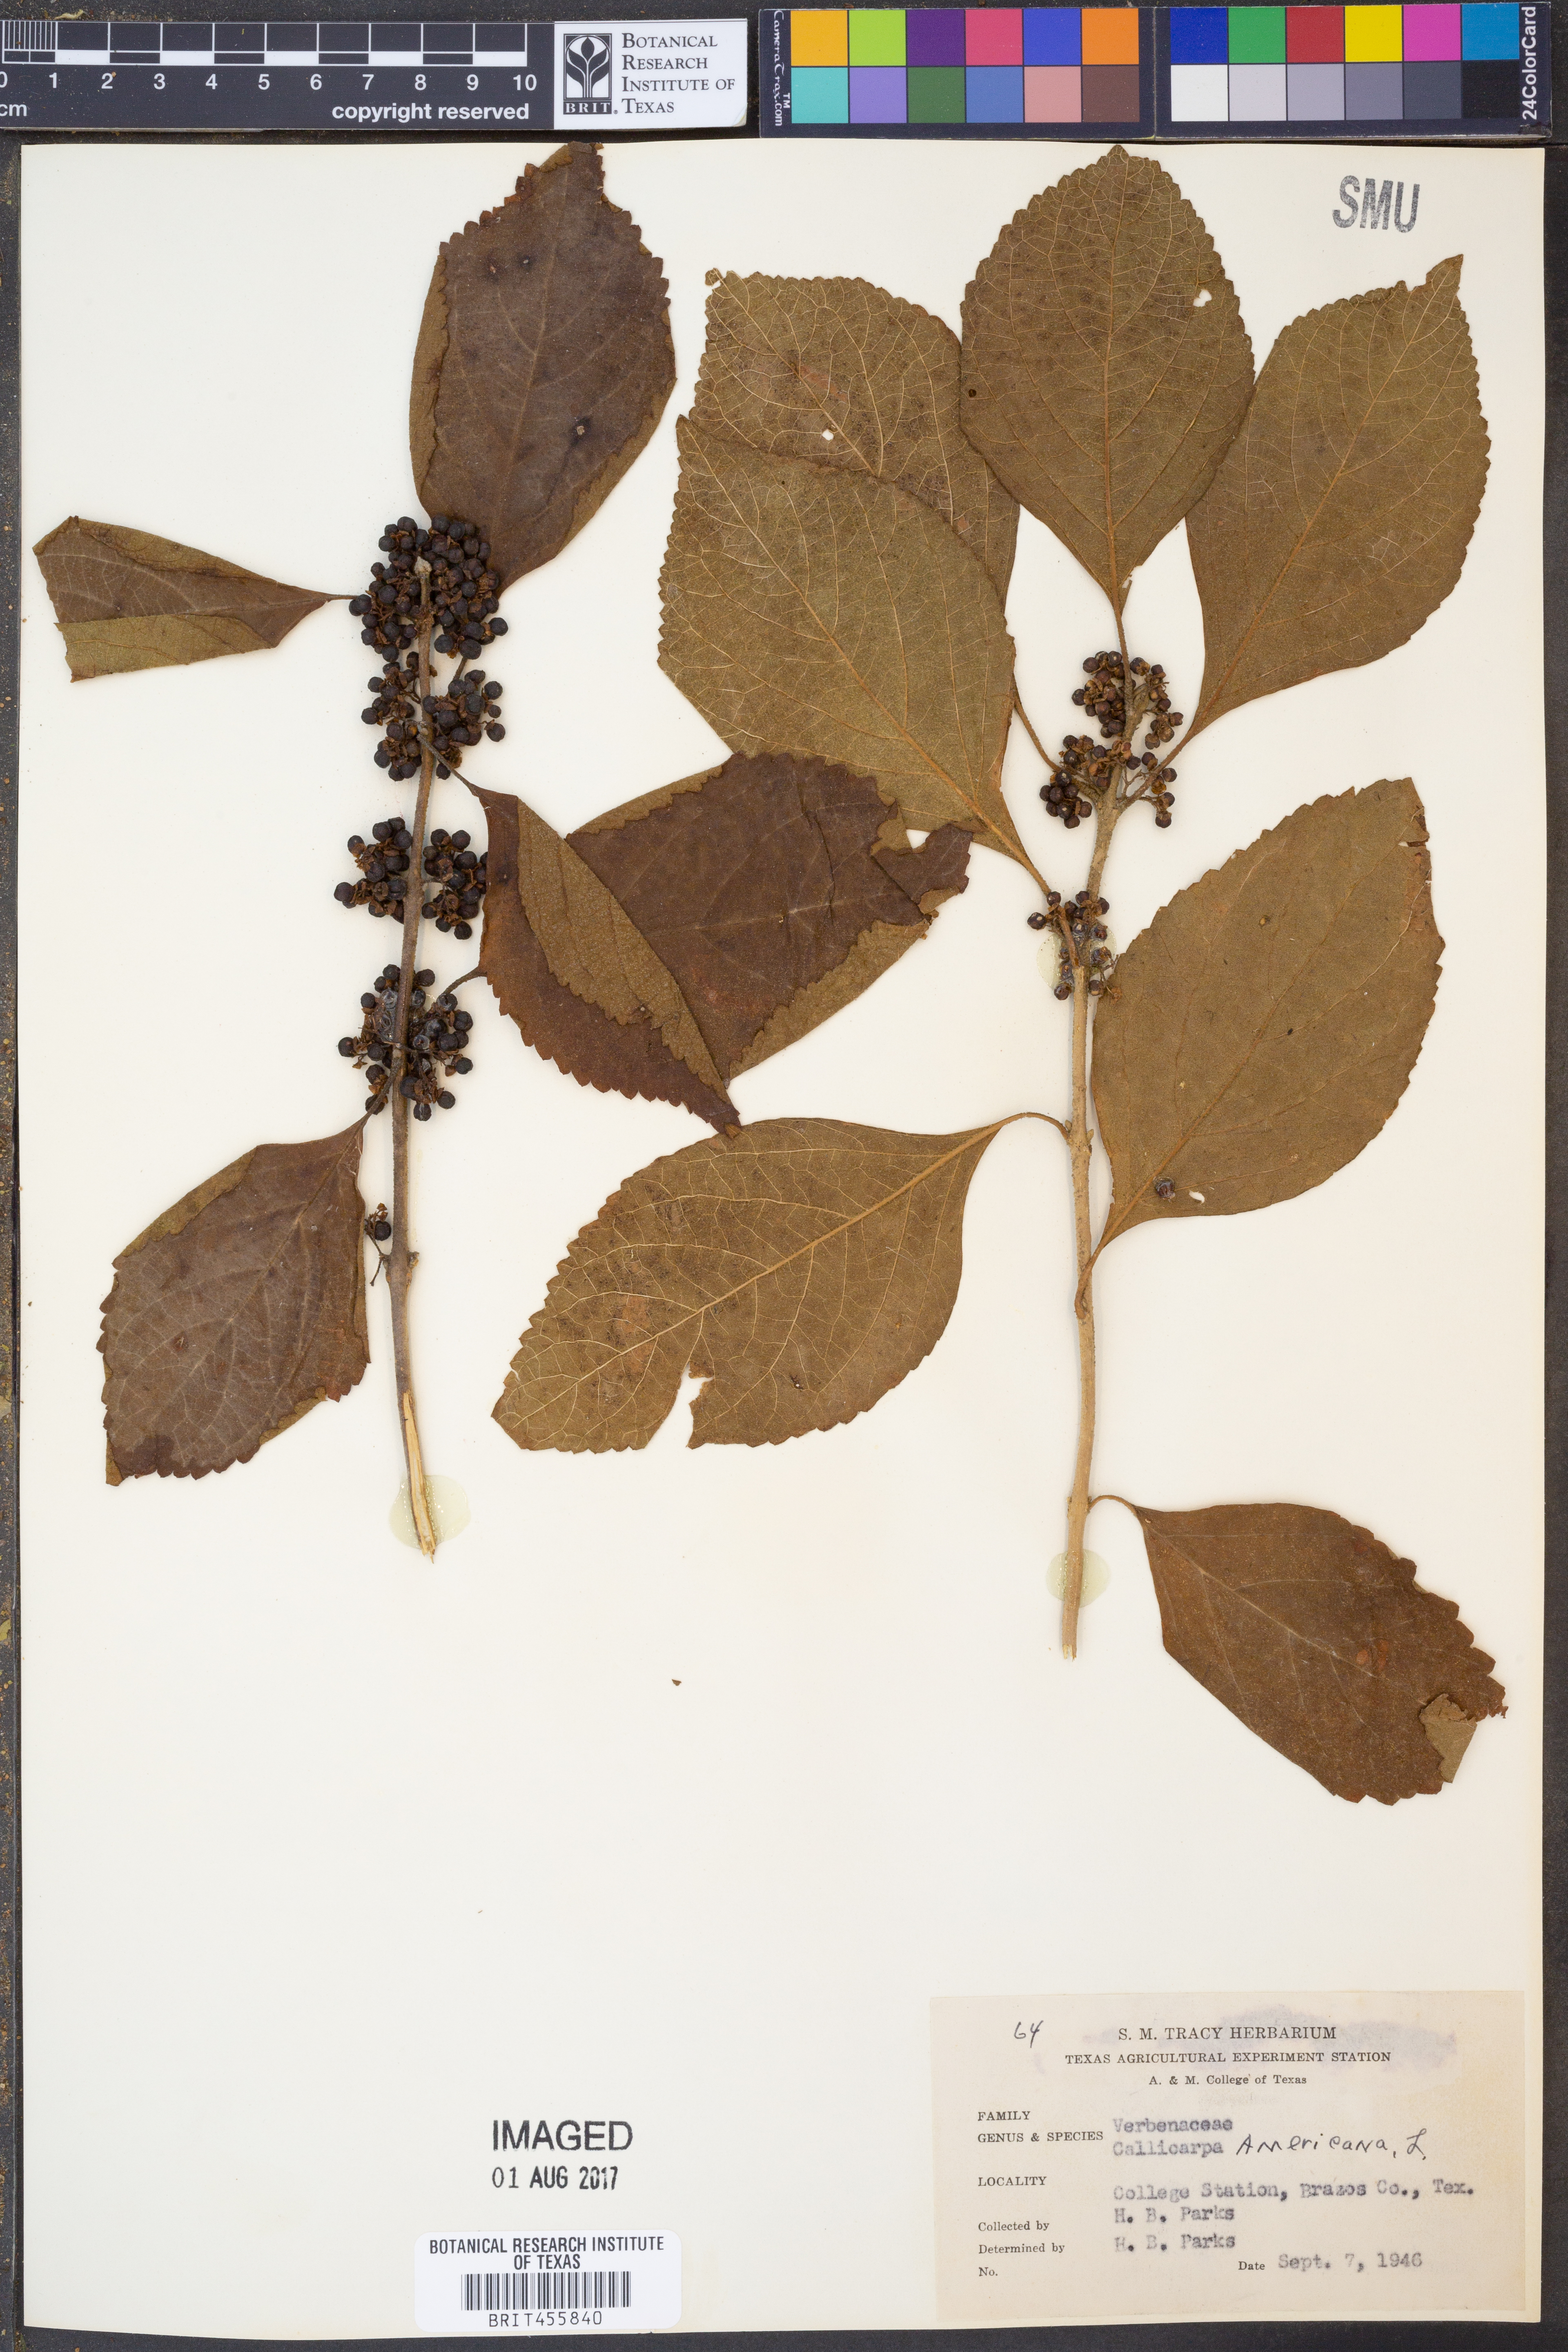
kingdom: Plantae
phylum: Tracheophyta
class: Magnoliopsida
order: Lamiales
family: Lamiaceae
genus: Callicarpa
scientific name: Callicarpa americana
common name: American beautyberry
